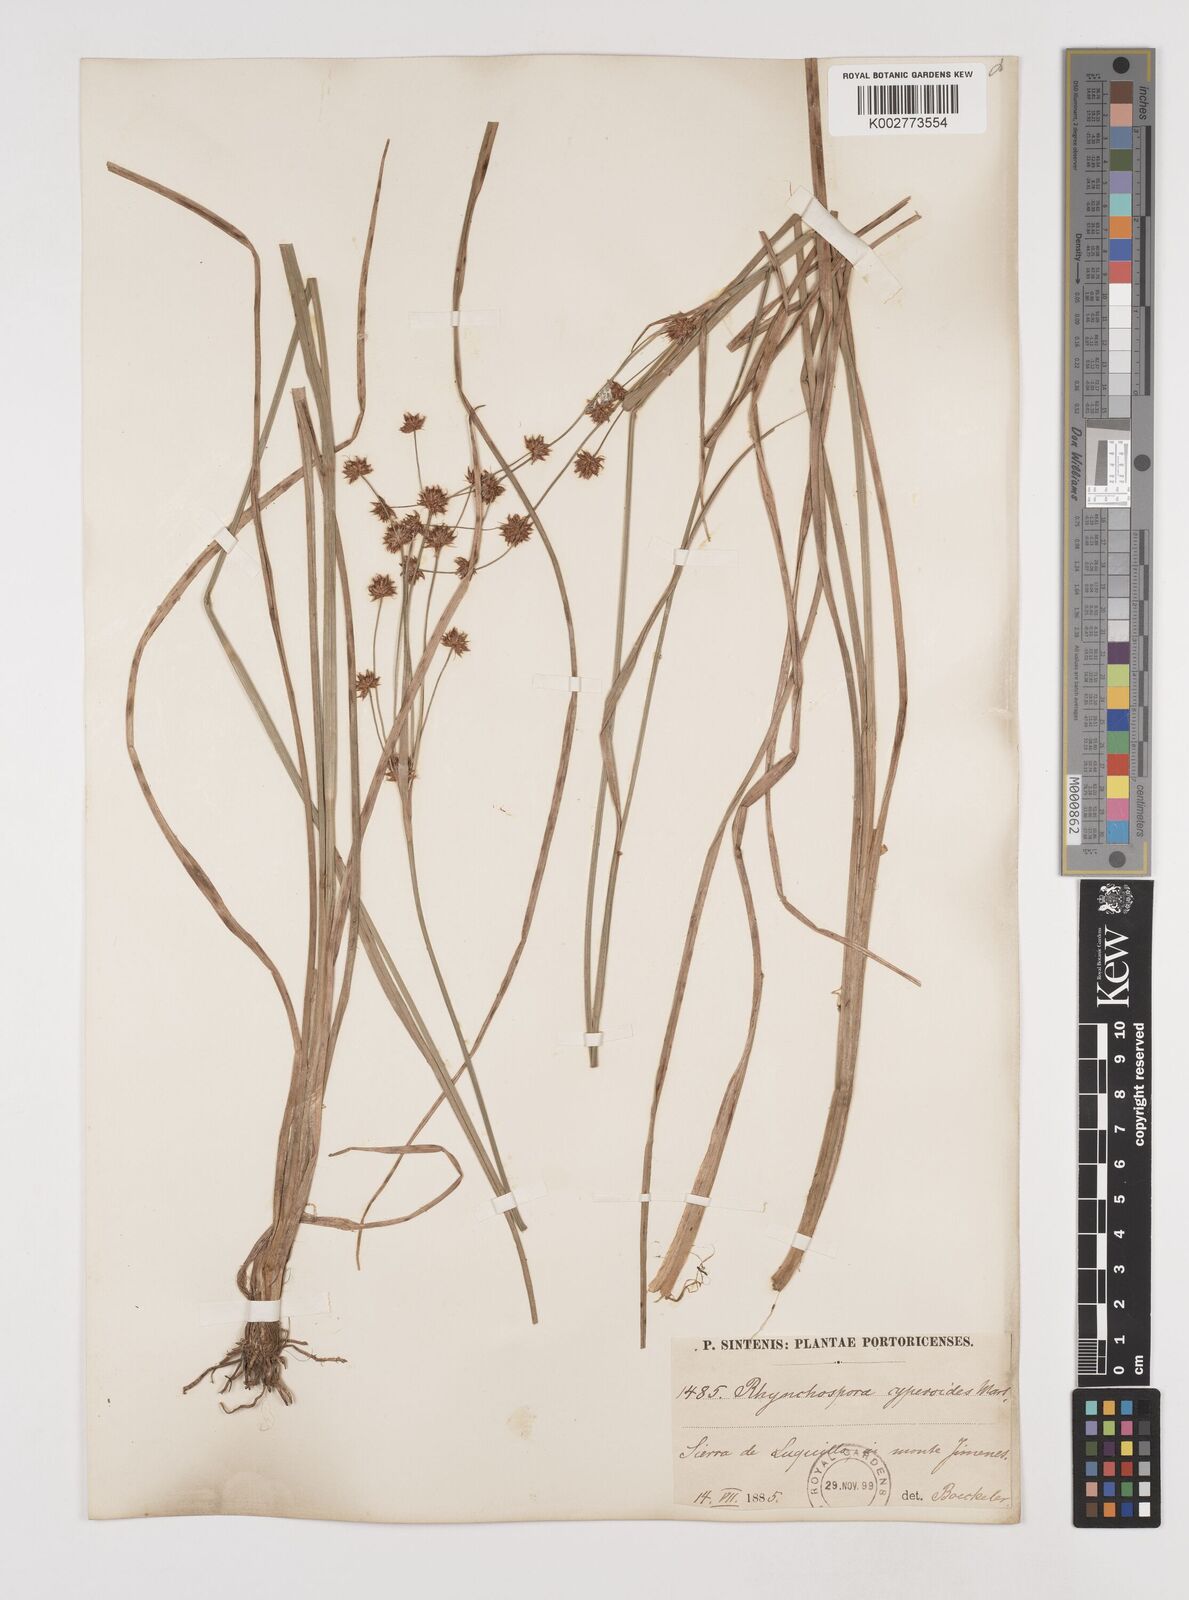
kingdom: Plantae
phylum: Tracheophyta
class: Liliopsida
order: Poales
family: Cyperaceae
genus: Rhynchospora
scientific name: Rhynchospora holoschoenoides
